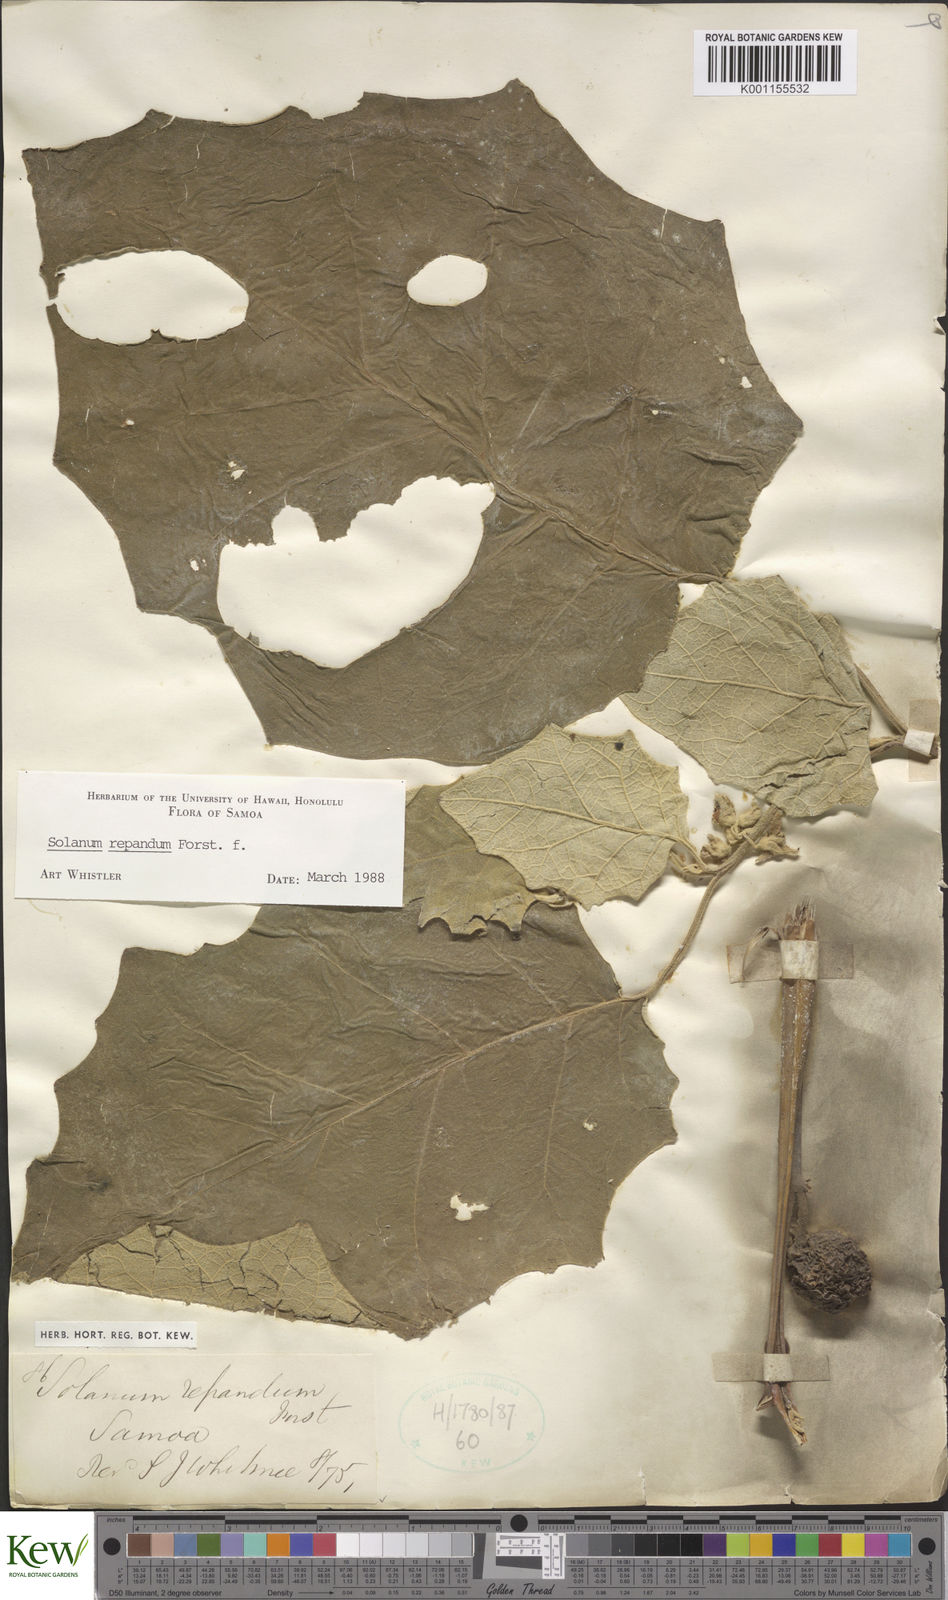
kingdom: Plantae
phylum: Tracheophyta
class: Magnoliopsida
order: Solanales
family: Solanaceae
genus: Solanum
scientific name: Solanum repandum
